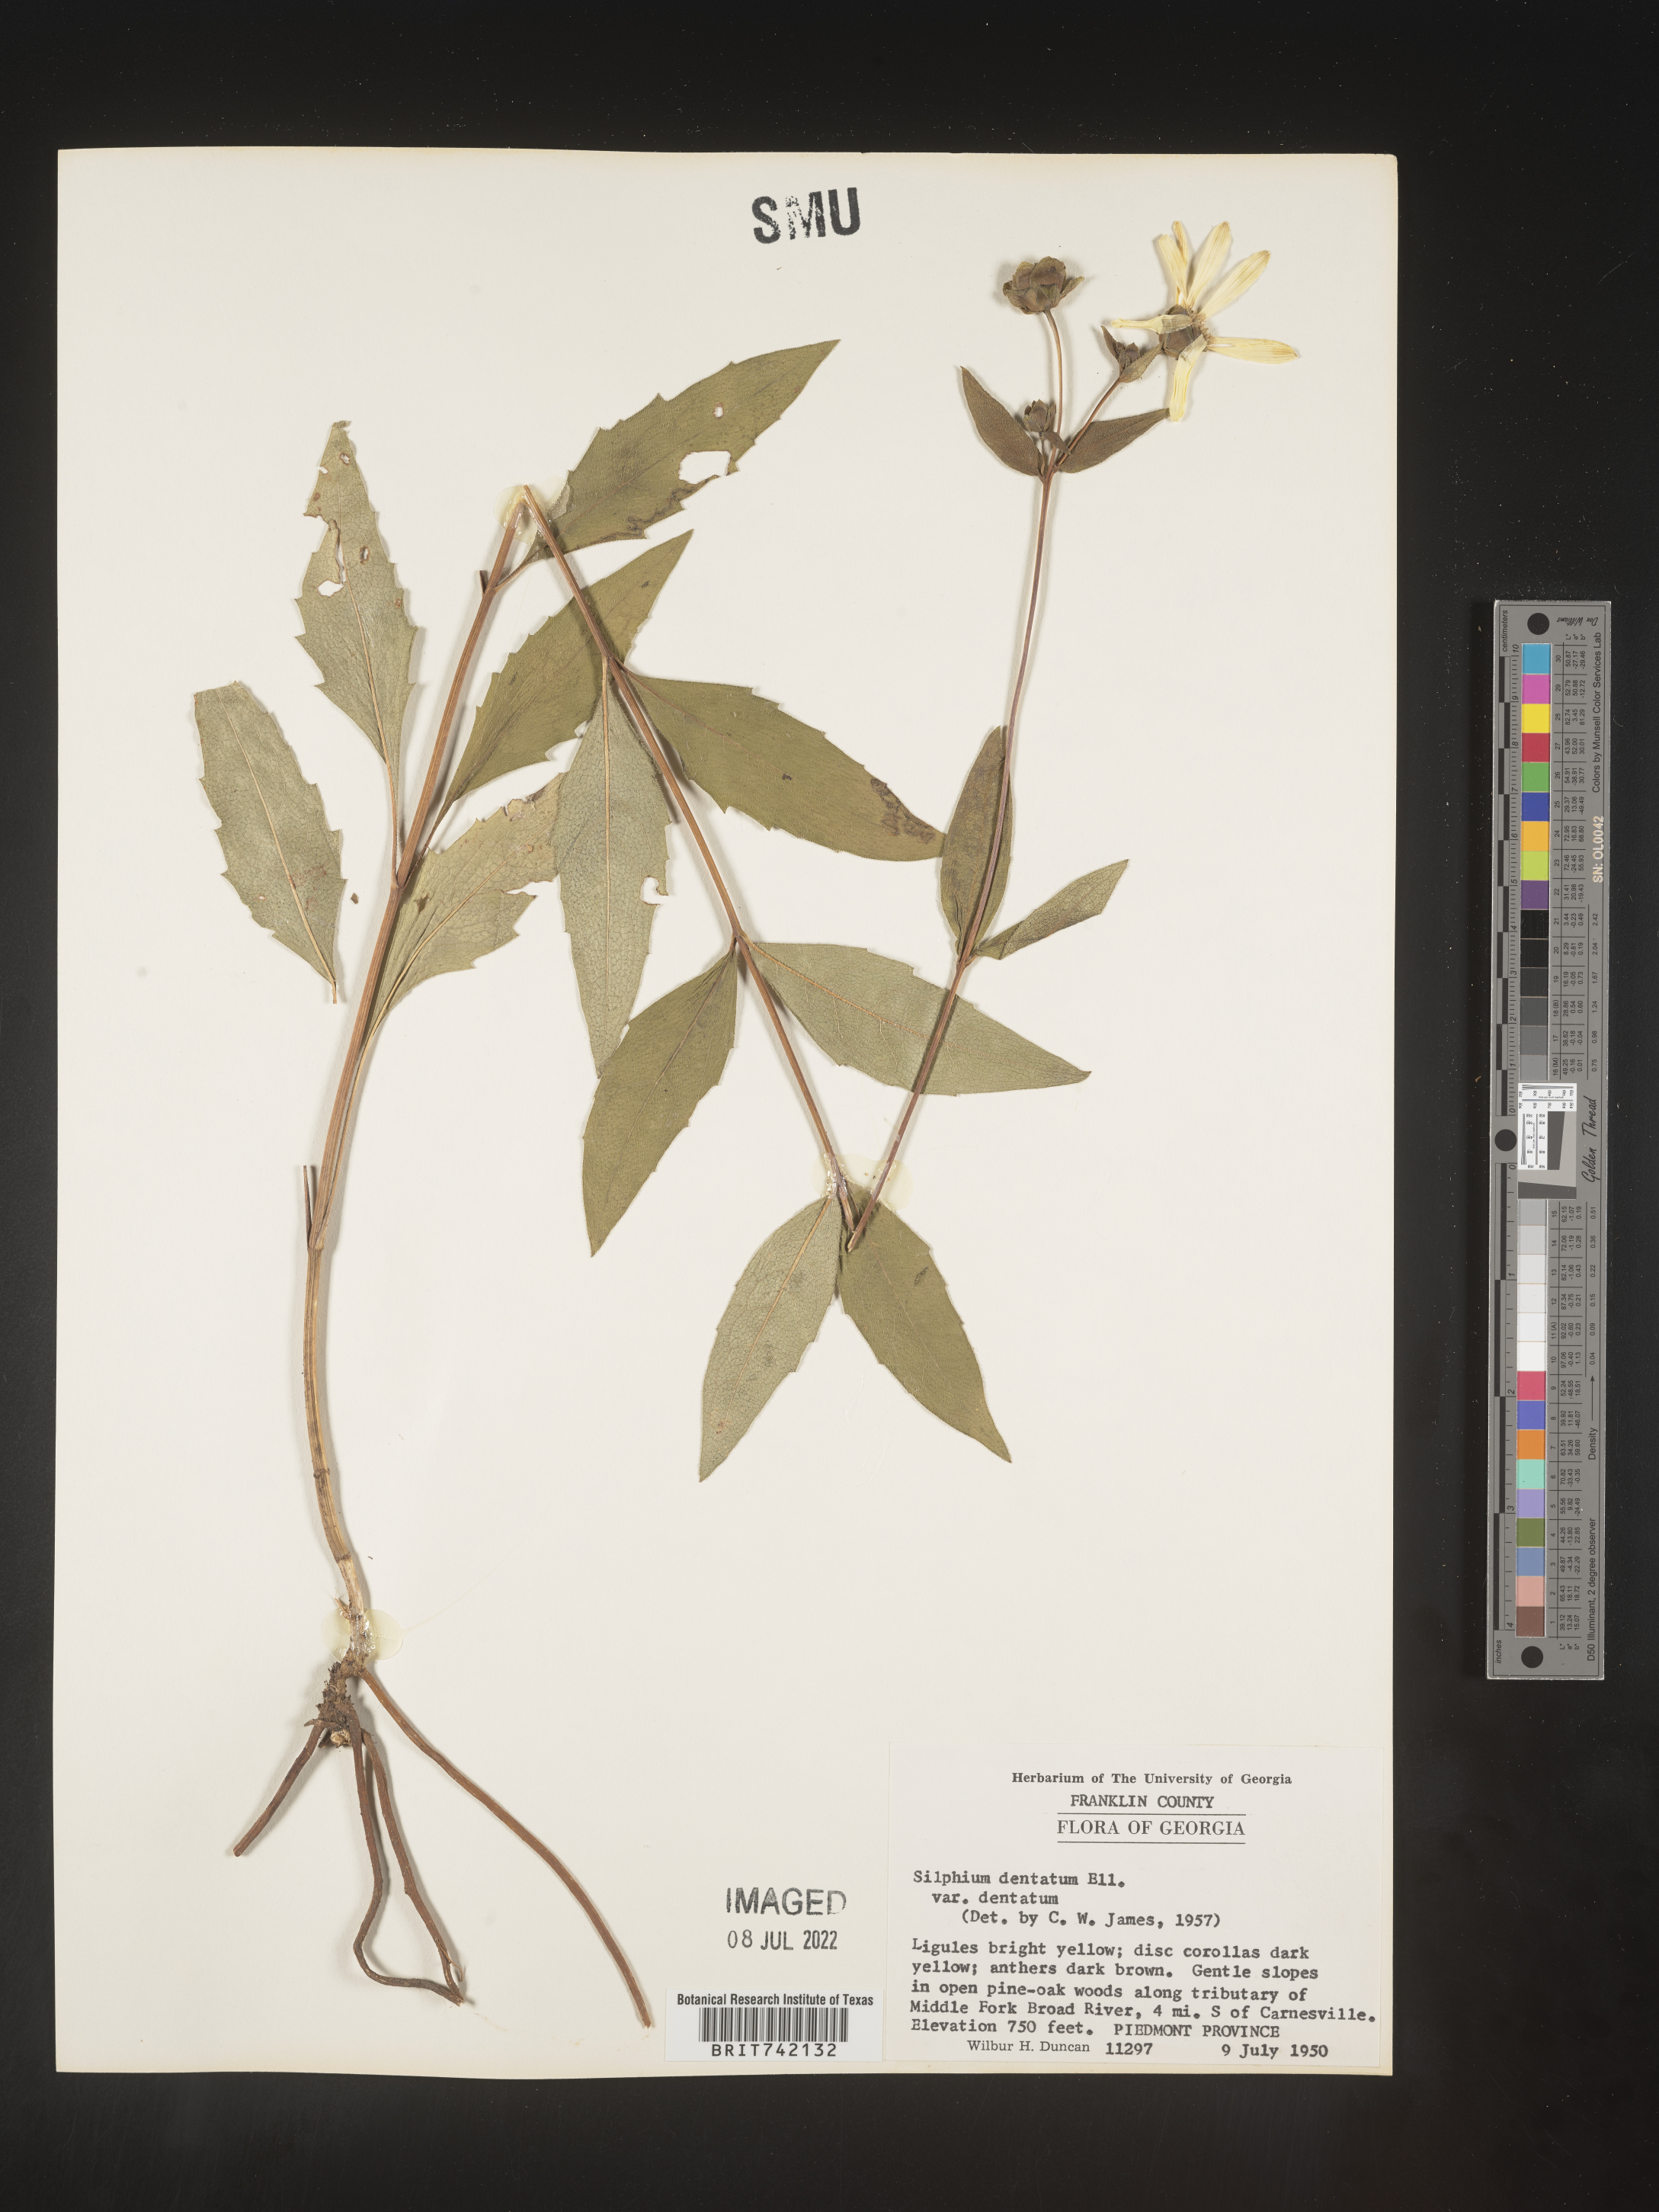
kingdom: Plantae
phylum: Tracheophyta
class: Magnoliopsida
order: Asterales
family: Asteraceae
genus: Silphium
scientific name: Silphium glabrum
